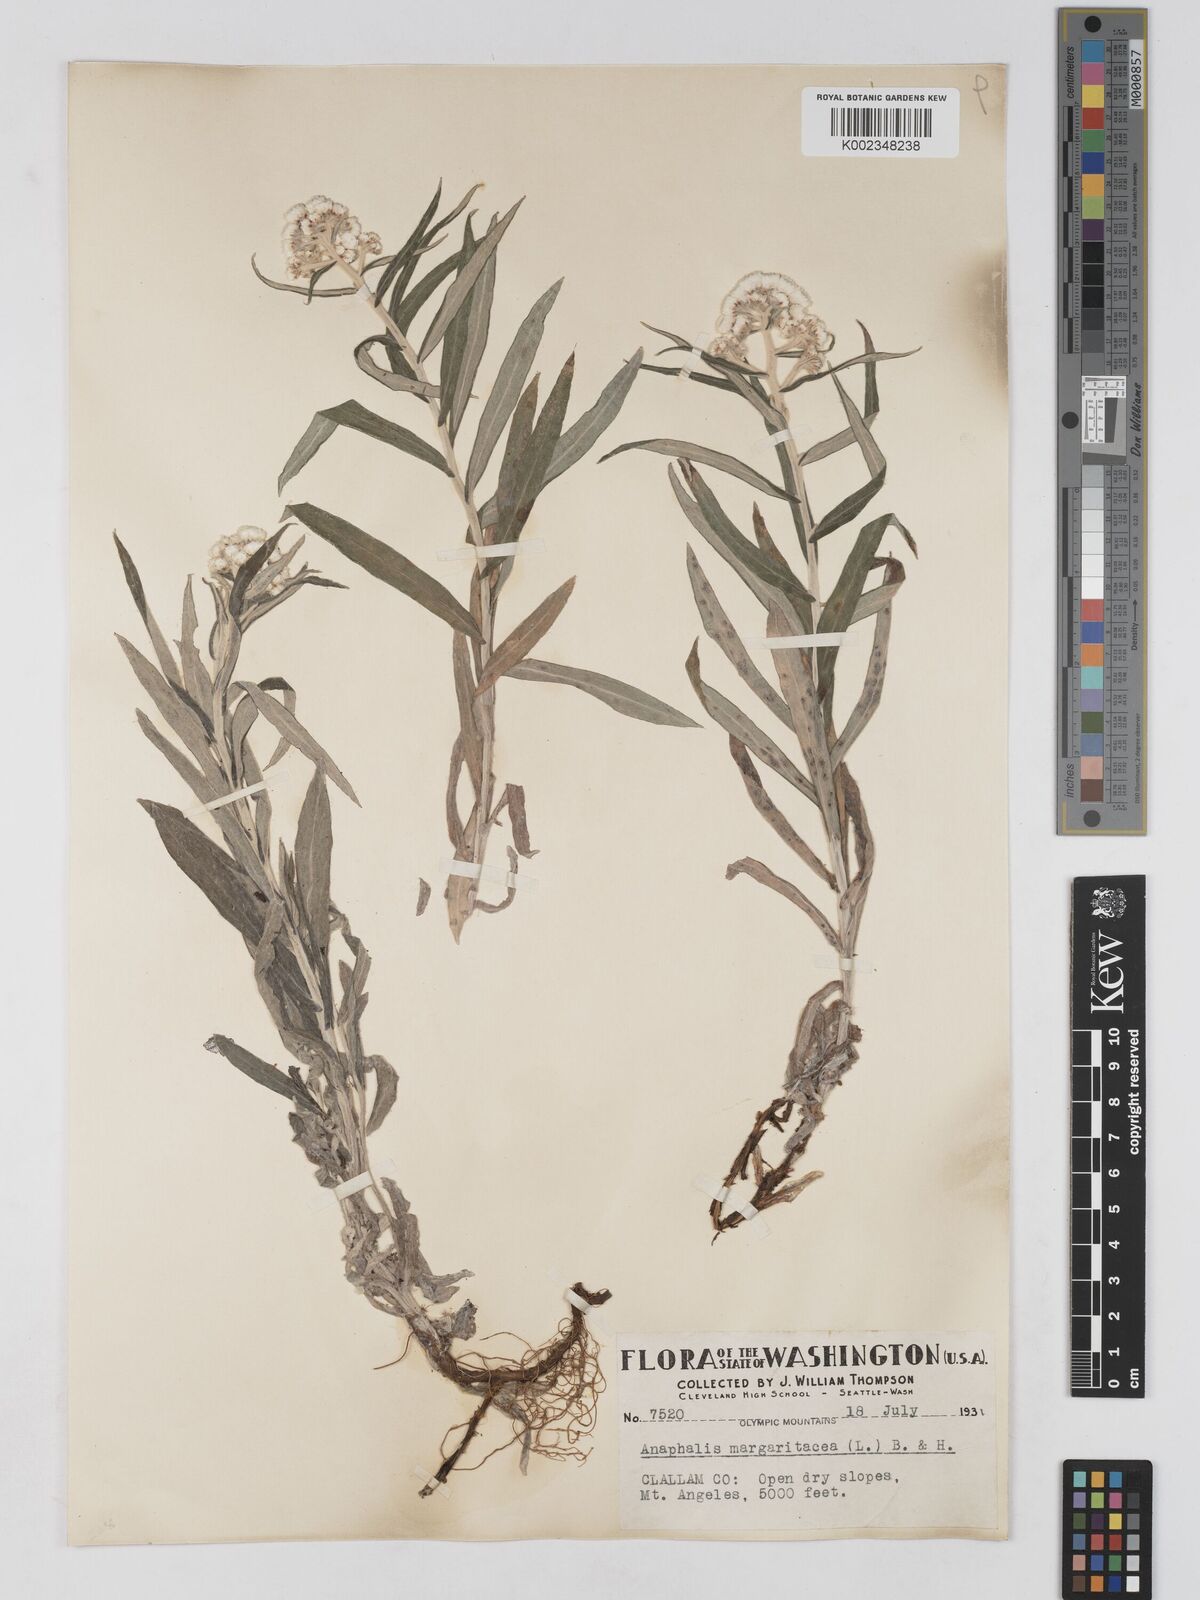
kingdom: Plantae
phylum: Tracheophyta
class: Magnoliopsida
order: Asterales
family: Asteraceae
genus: Anaphalis
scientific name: Anaphalis margaritacea
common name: Pearly everlasting
